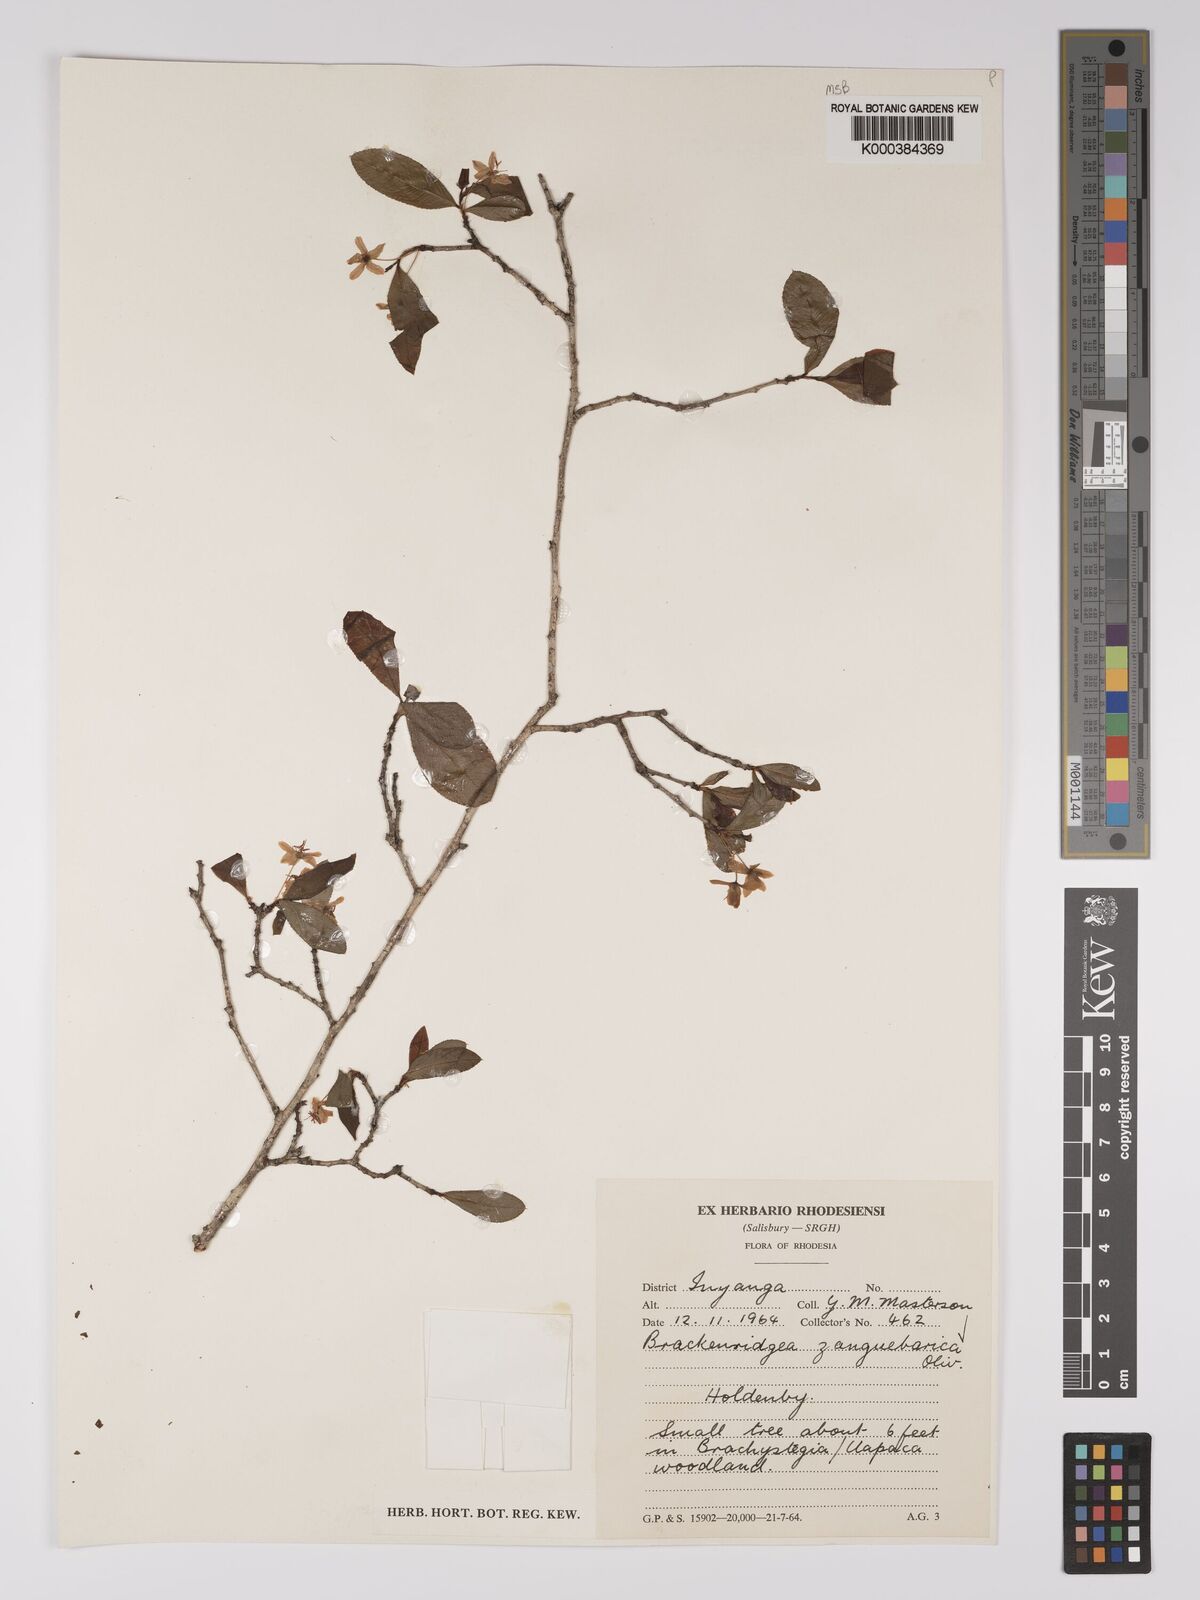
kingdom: Plantae
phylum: Tracheophyta
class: Magnoliopsida
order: Malpighiales
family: Ochnaceae
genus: Brackenridgea
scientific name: Brackenridgea zanguebarica
